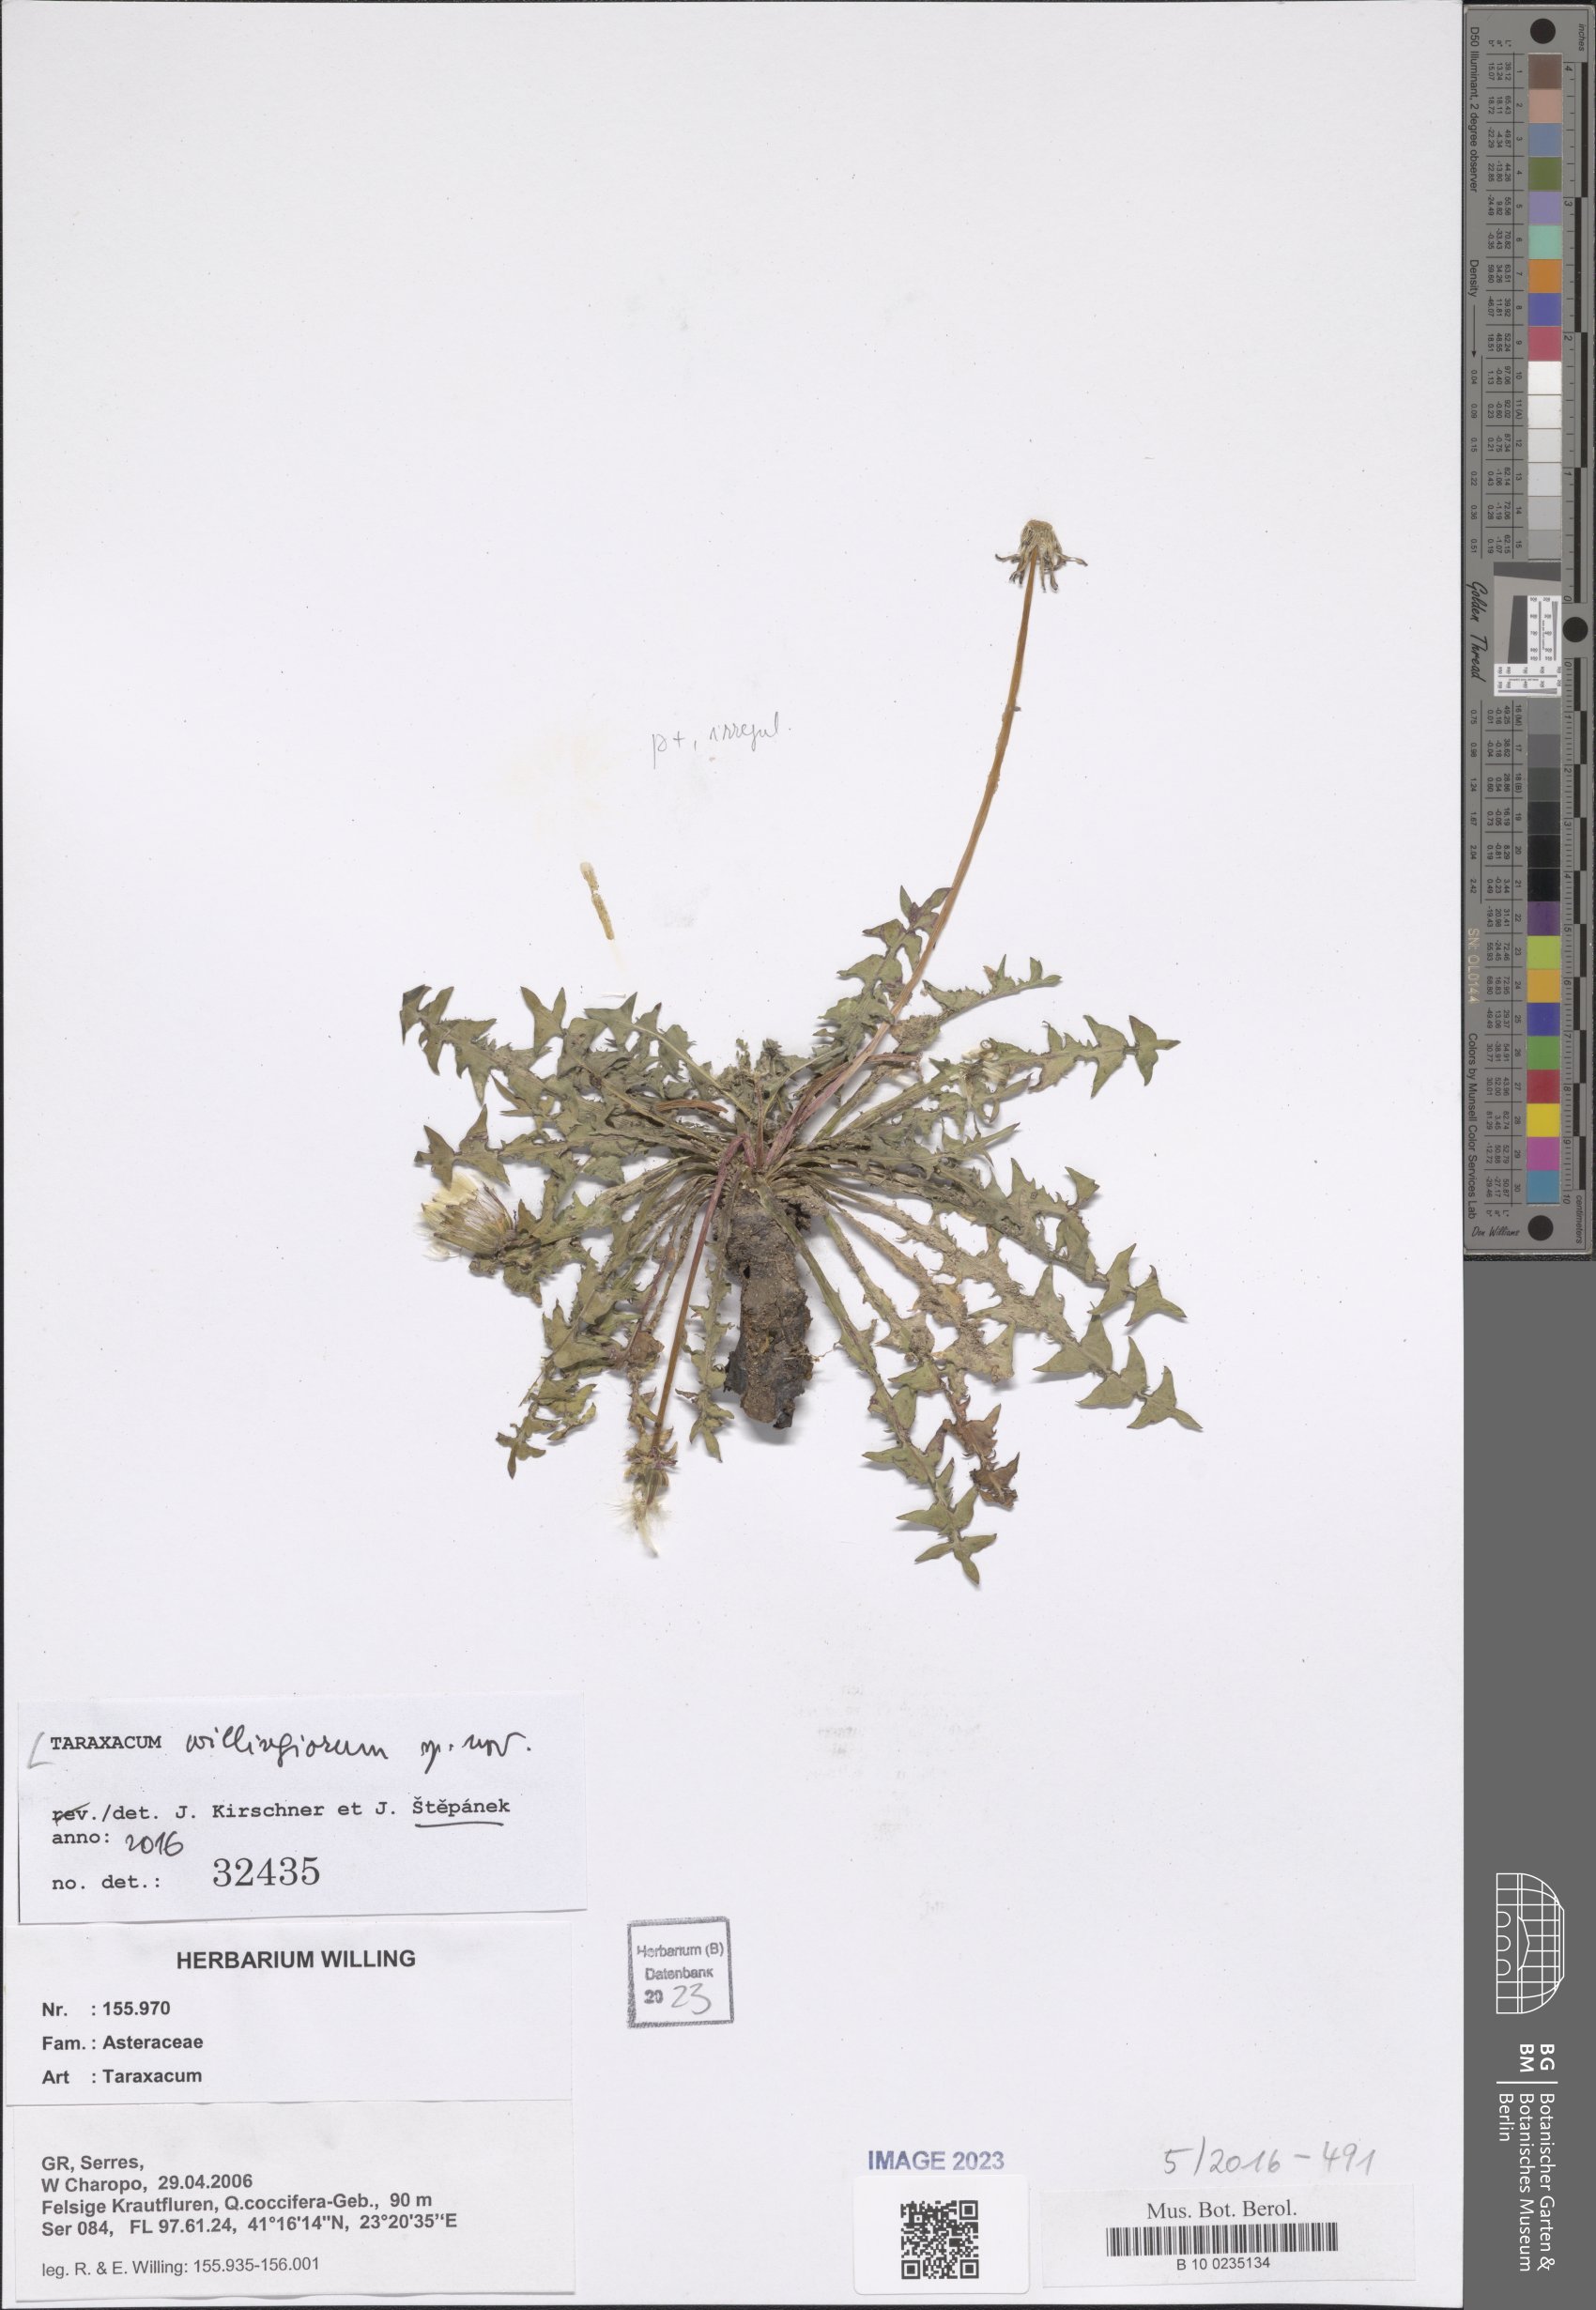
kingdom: Plantae
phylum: Tracheophyta
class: Magnoliopsida
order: Asterales
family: Asteraceae
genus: Taraxacum
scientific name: Taraxacum
